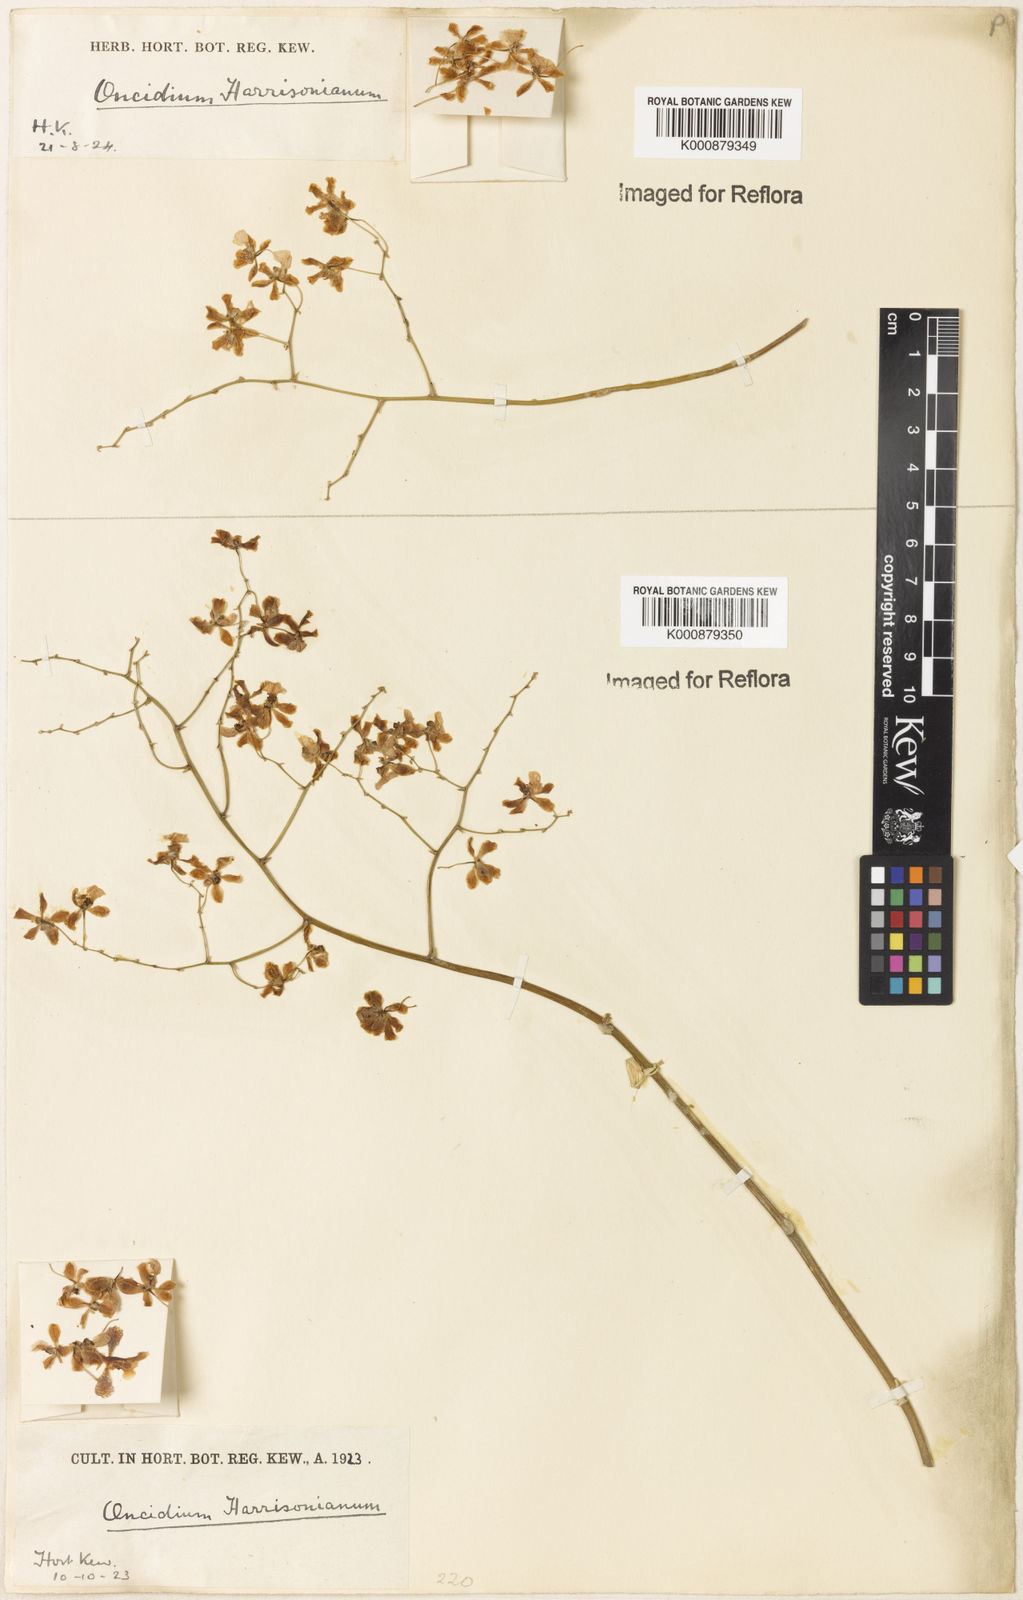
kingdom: Plantae
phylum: Tracheophyta
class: Liliopsida
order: Asparagales
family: Orchidaceae
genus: Grandiphyllum
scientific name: Grandiphyllum auricula
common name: Mule-ear orchid
